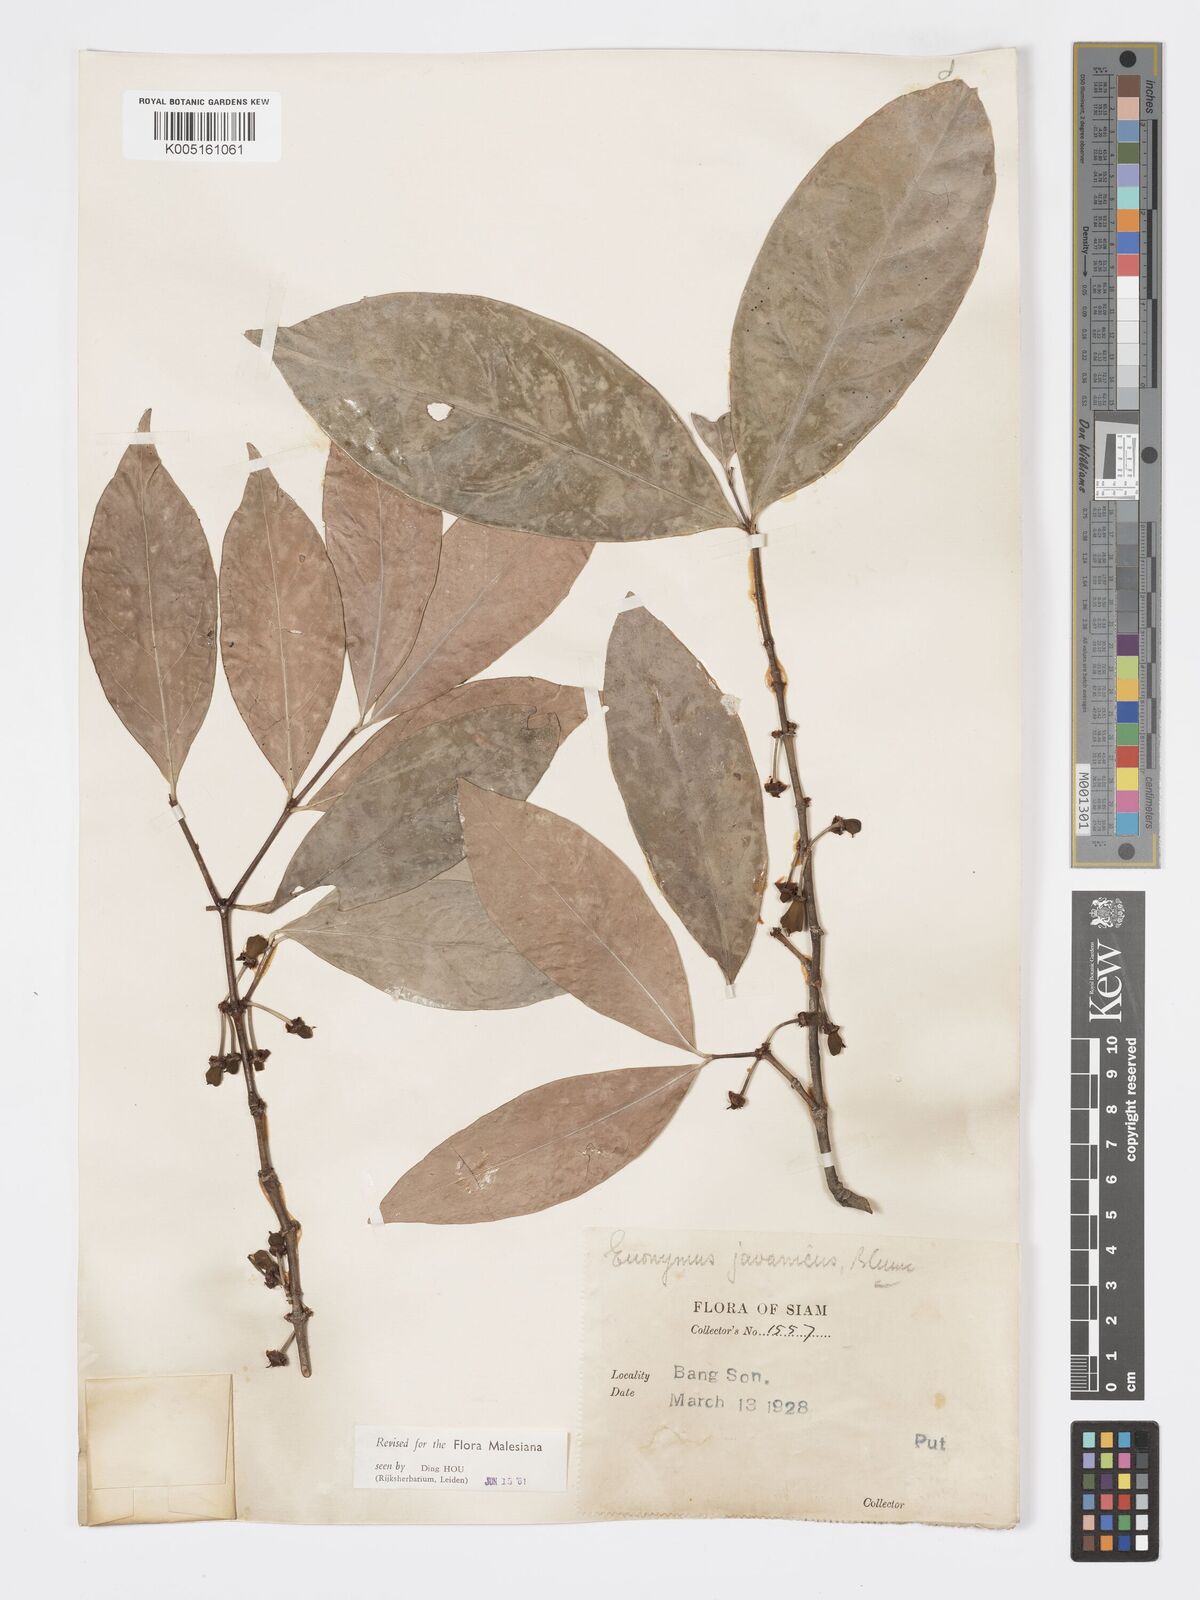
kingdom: Plantae
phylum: Tracheophyta
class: Magnoliopsida
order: Celastrales
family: Celastraceae
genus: Euonymus
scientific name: Euonymus indicus
